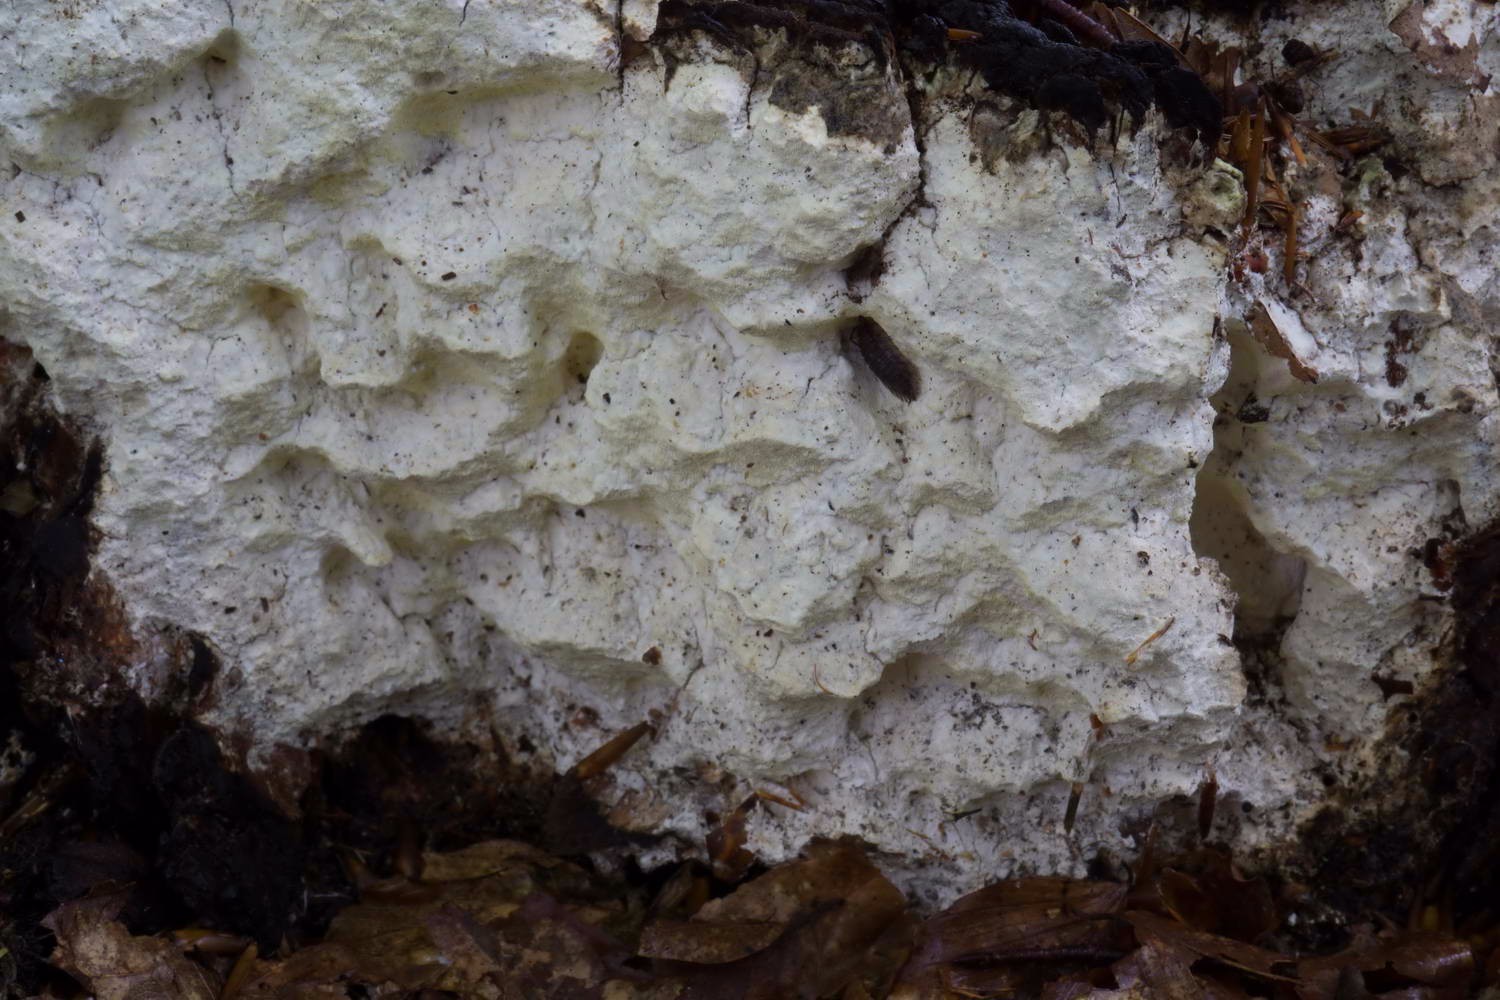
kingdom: Fungi
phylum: Basidiomycota
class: Agaricomycetes
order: Polyporales
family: Fomitopsidaceae
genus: Daedalea
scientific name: Daedalea xantha
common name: gul sejporesvamp
